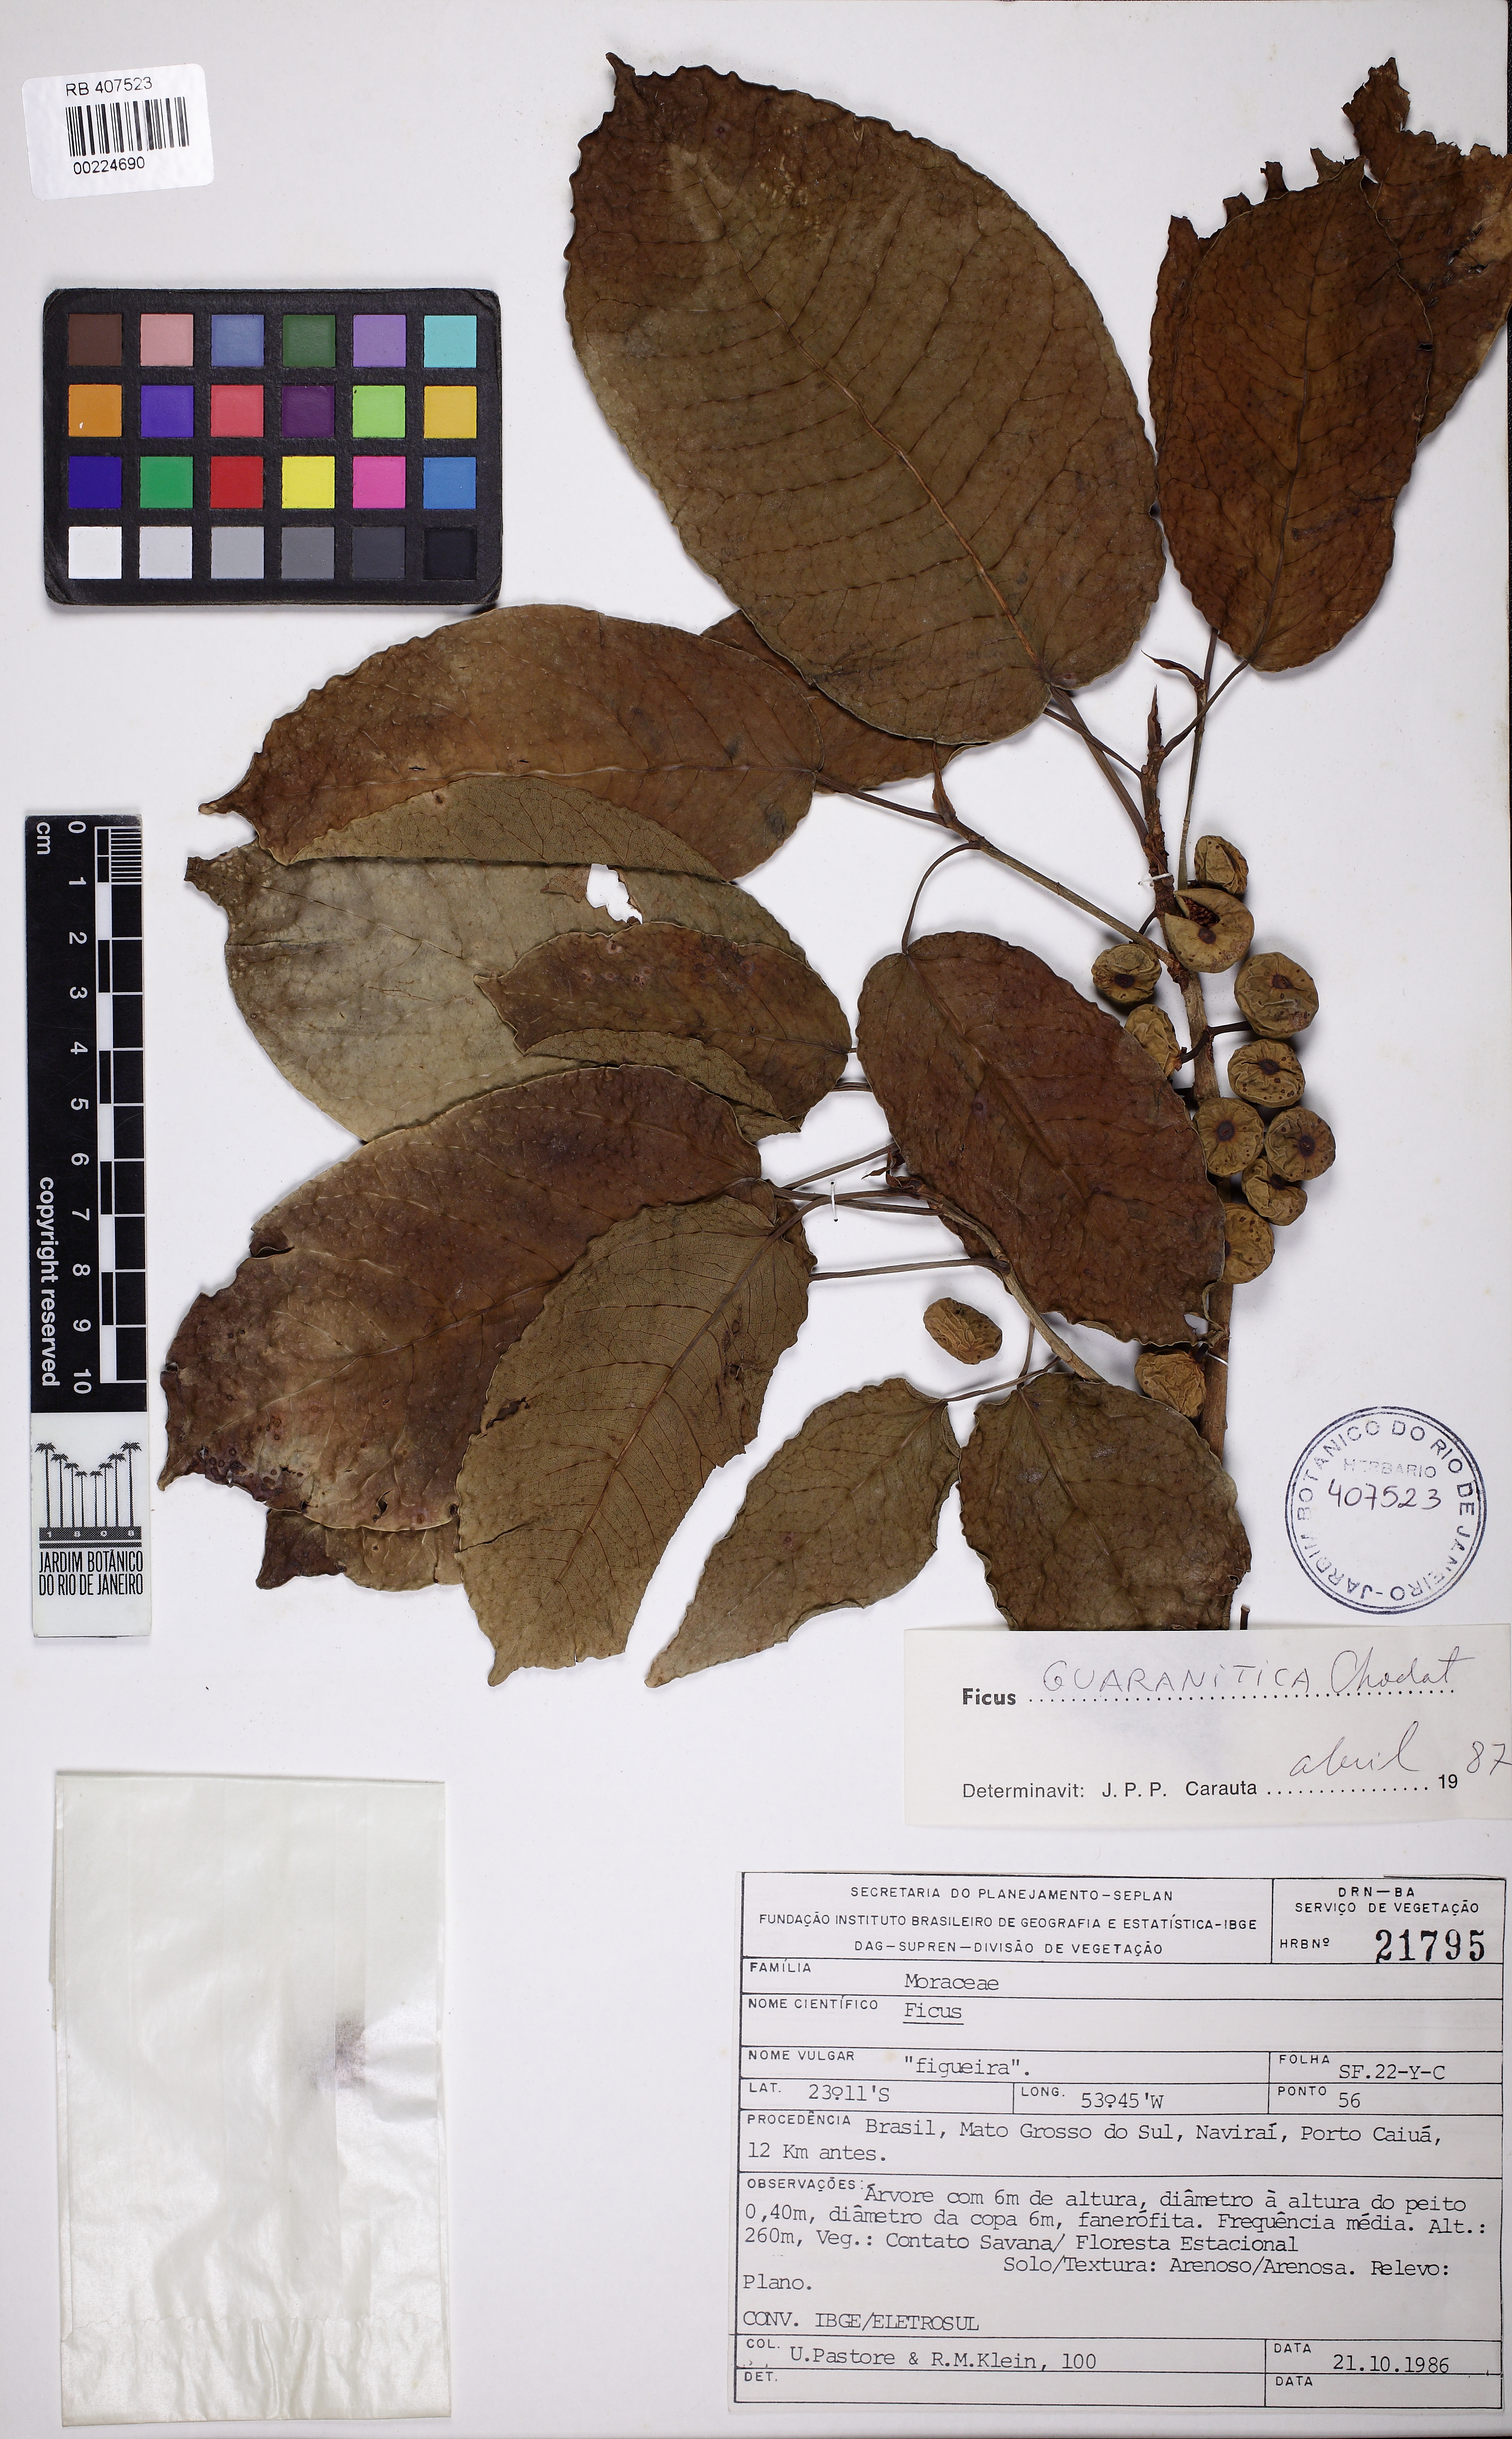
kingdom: Plantae
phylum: Tracheophyta
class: Magnoliopsida
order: Rosales
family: Moraceae
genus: Ficus
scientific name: Ficus guaranitica
